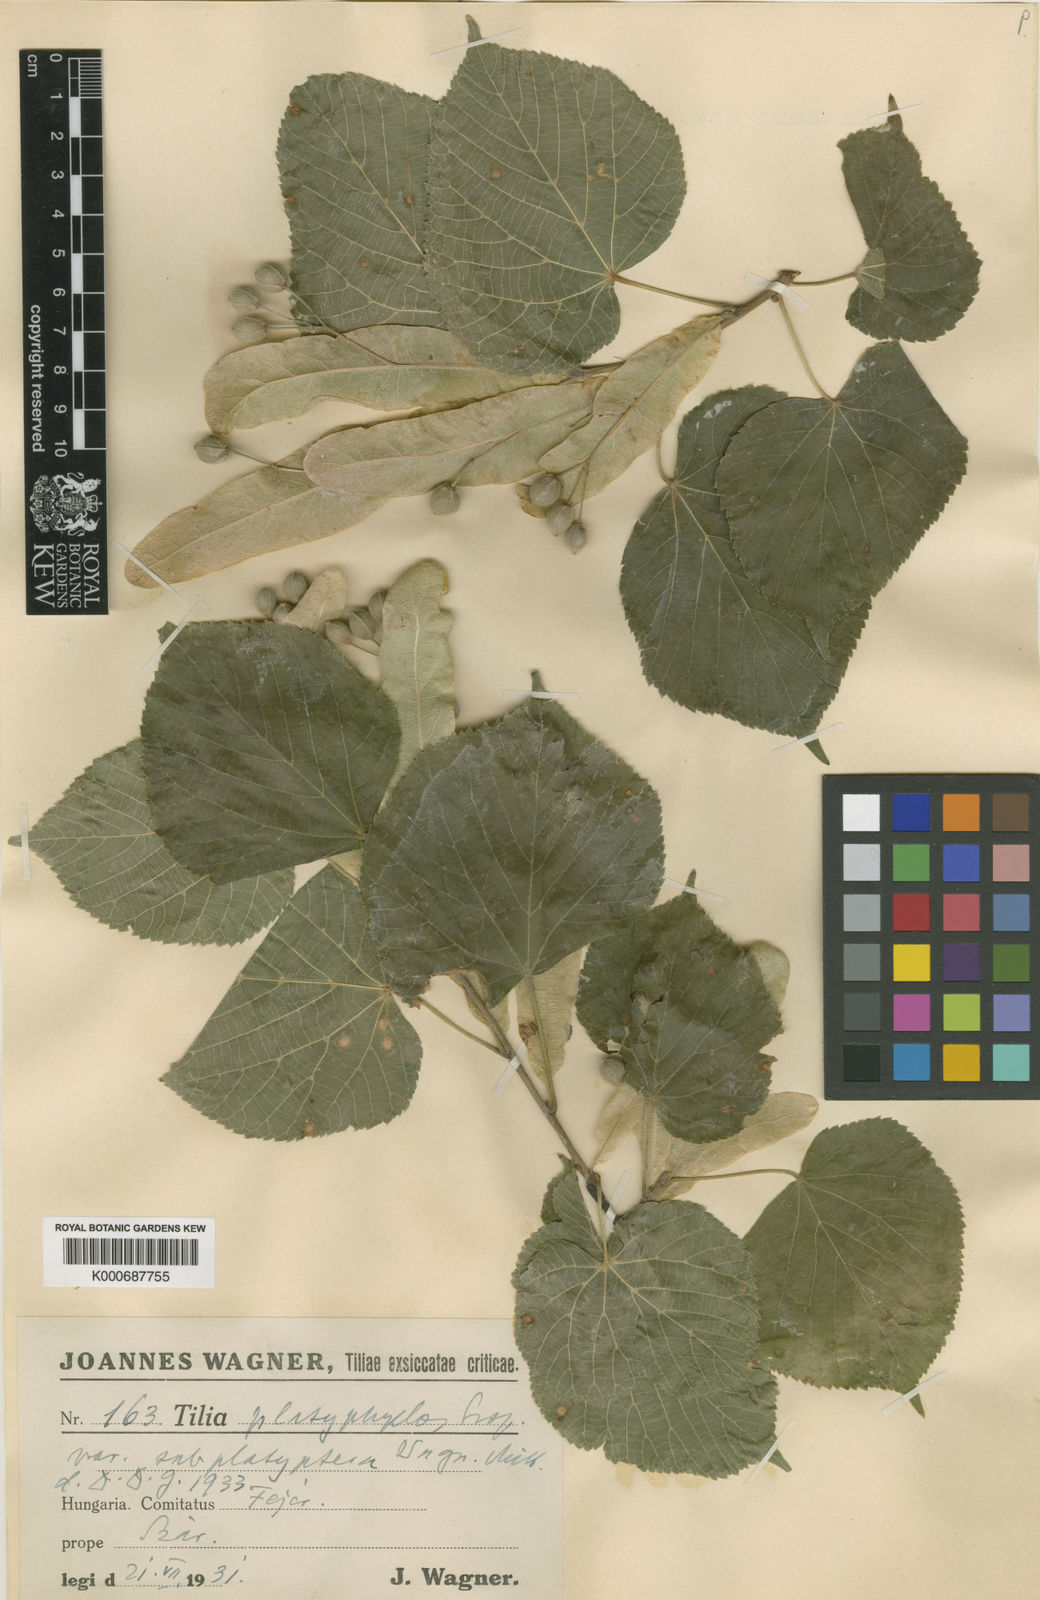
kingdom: Plantae
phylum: Tracheophyta
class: Magnoliopsida
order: Malvales
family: Malvaceae
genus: Tilia
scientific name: Tilia platyphyllos
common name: Large-leaved lime
